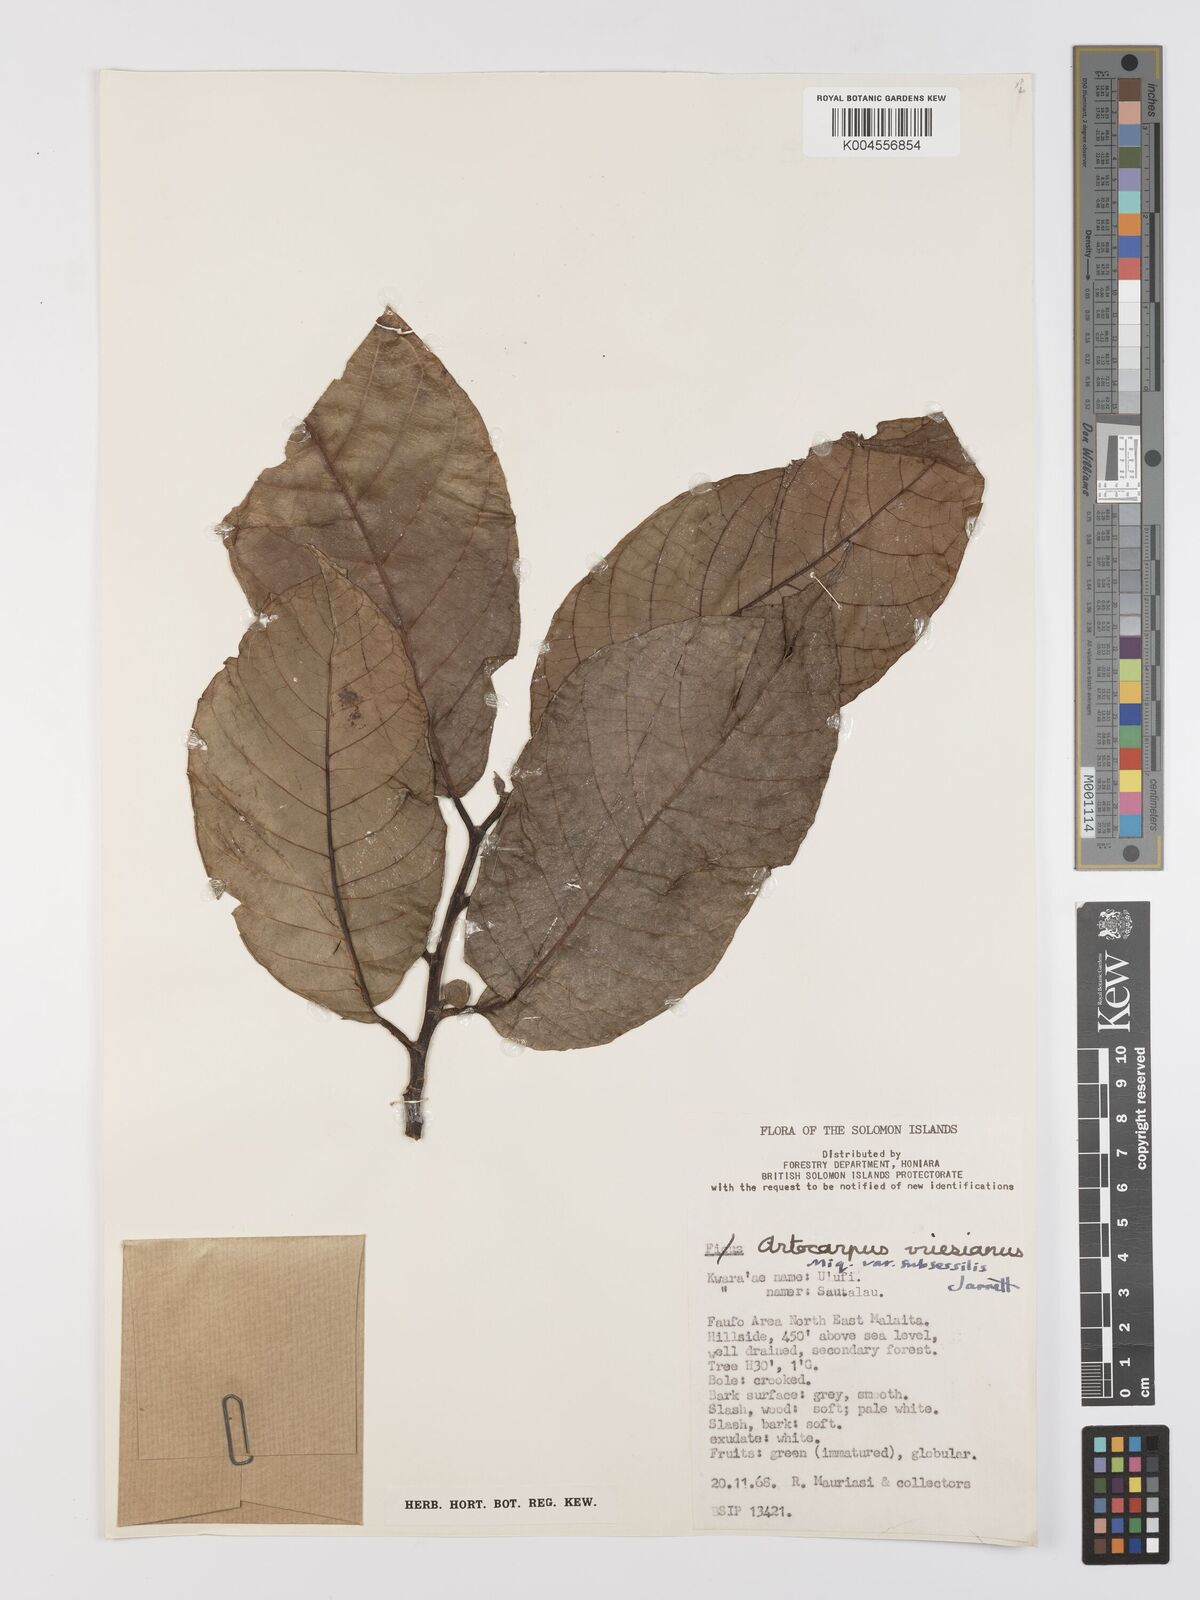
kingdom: Plantae
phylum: Tracheophyta
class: Magnoliopsida
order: Rosales
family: Moraceae
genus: Artocarpus
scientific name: Artocarpus vrieseanus
